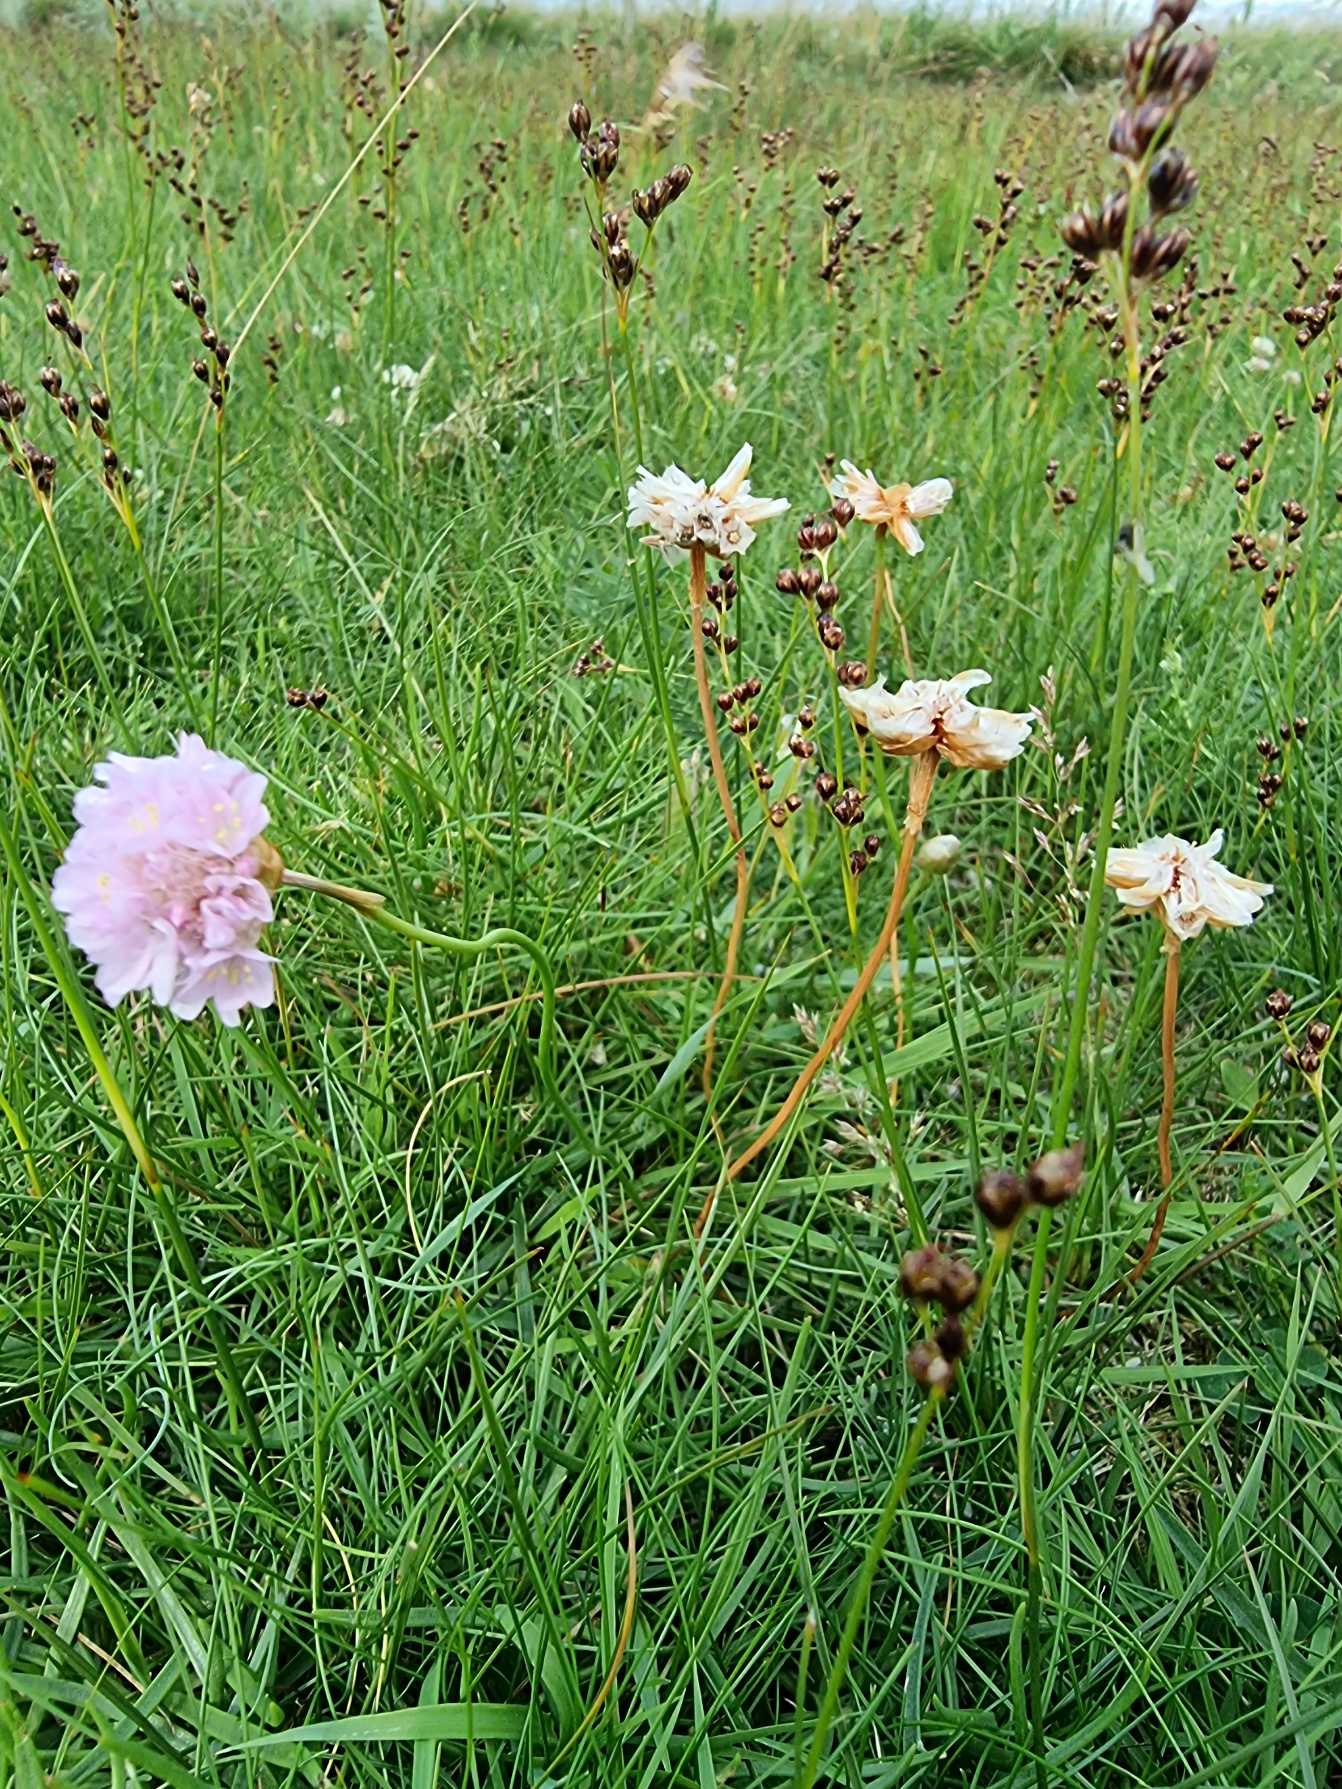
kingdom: Plantae
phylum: Tracheophyta
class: Magnoliopsida
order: Caryophyllales
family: Plumbaginaceae
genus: Armeria
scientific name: Armeria maritima
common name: Engelskgræs
